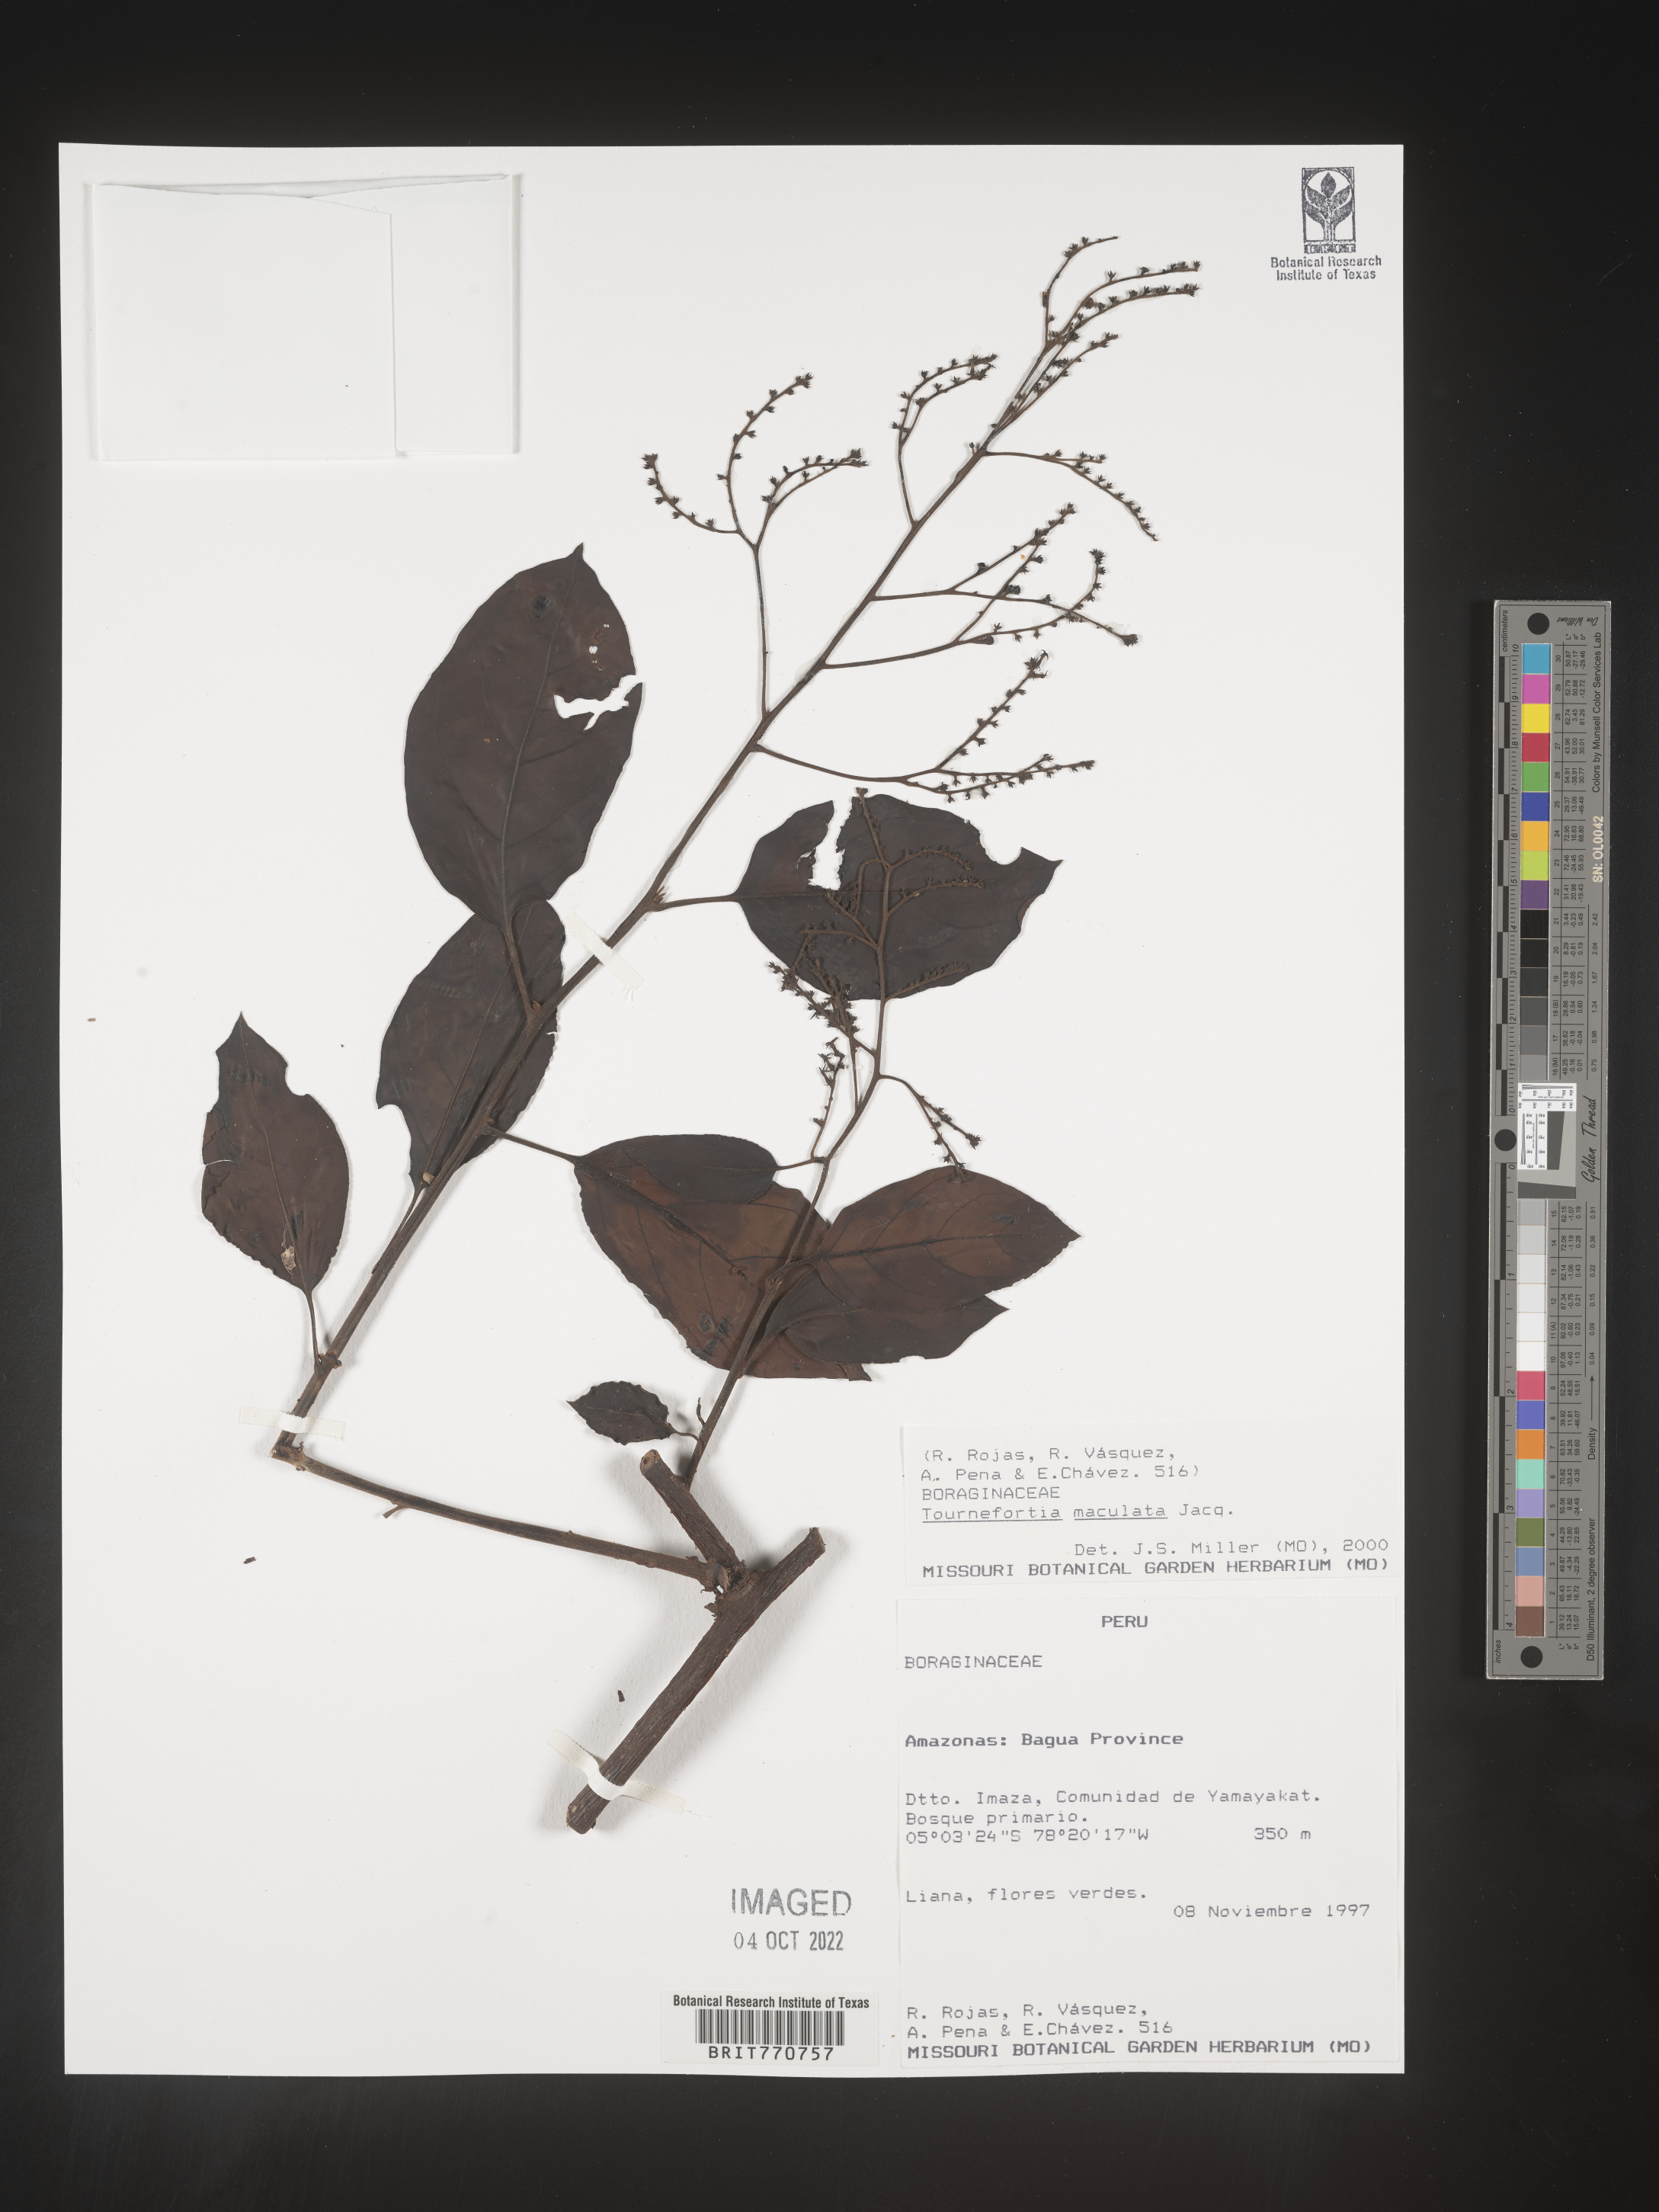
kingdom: Plantae
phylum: Tracheophyta
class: Magnoliopsida
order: Boraginales
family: Heliotropiaceae
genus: Tournefortia
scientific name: Tournefortia
